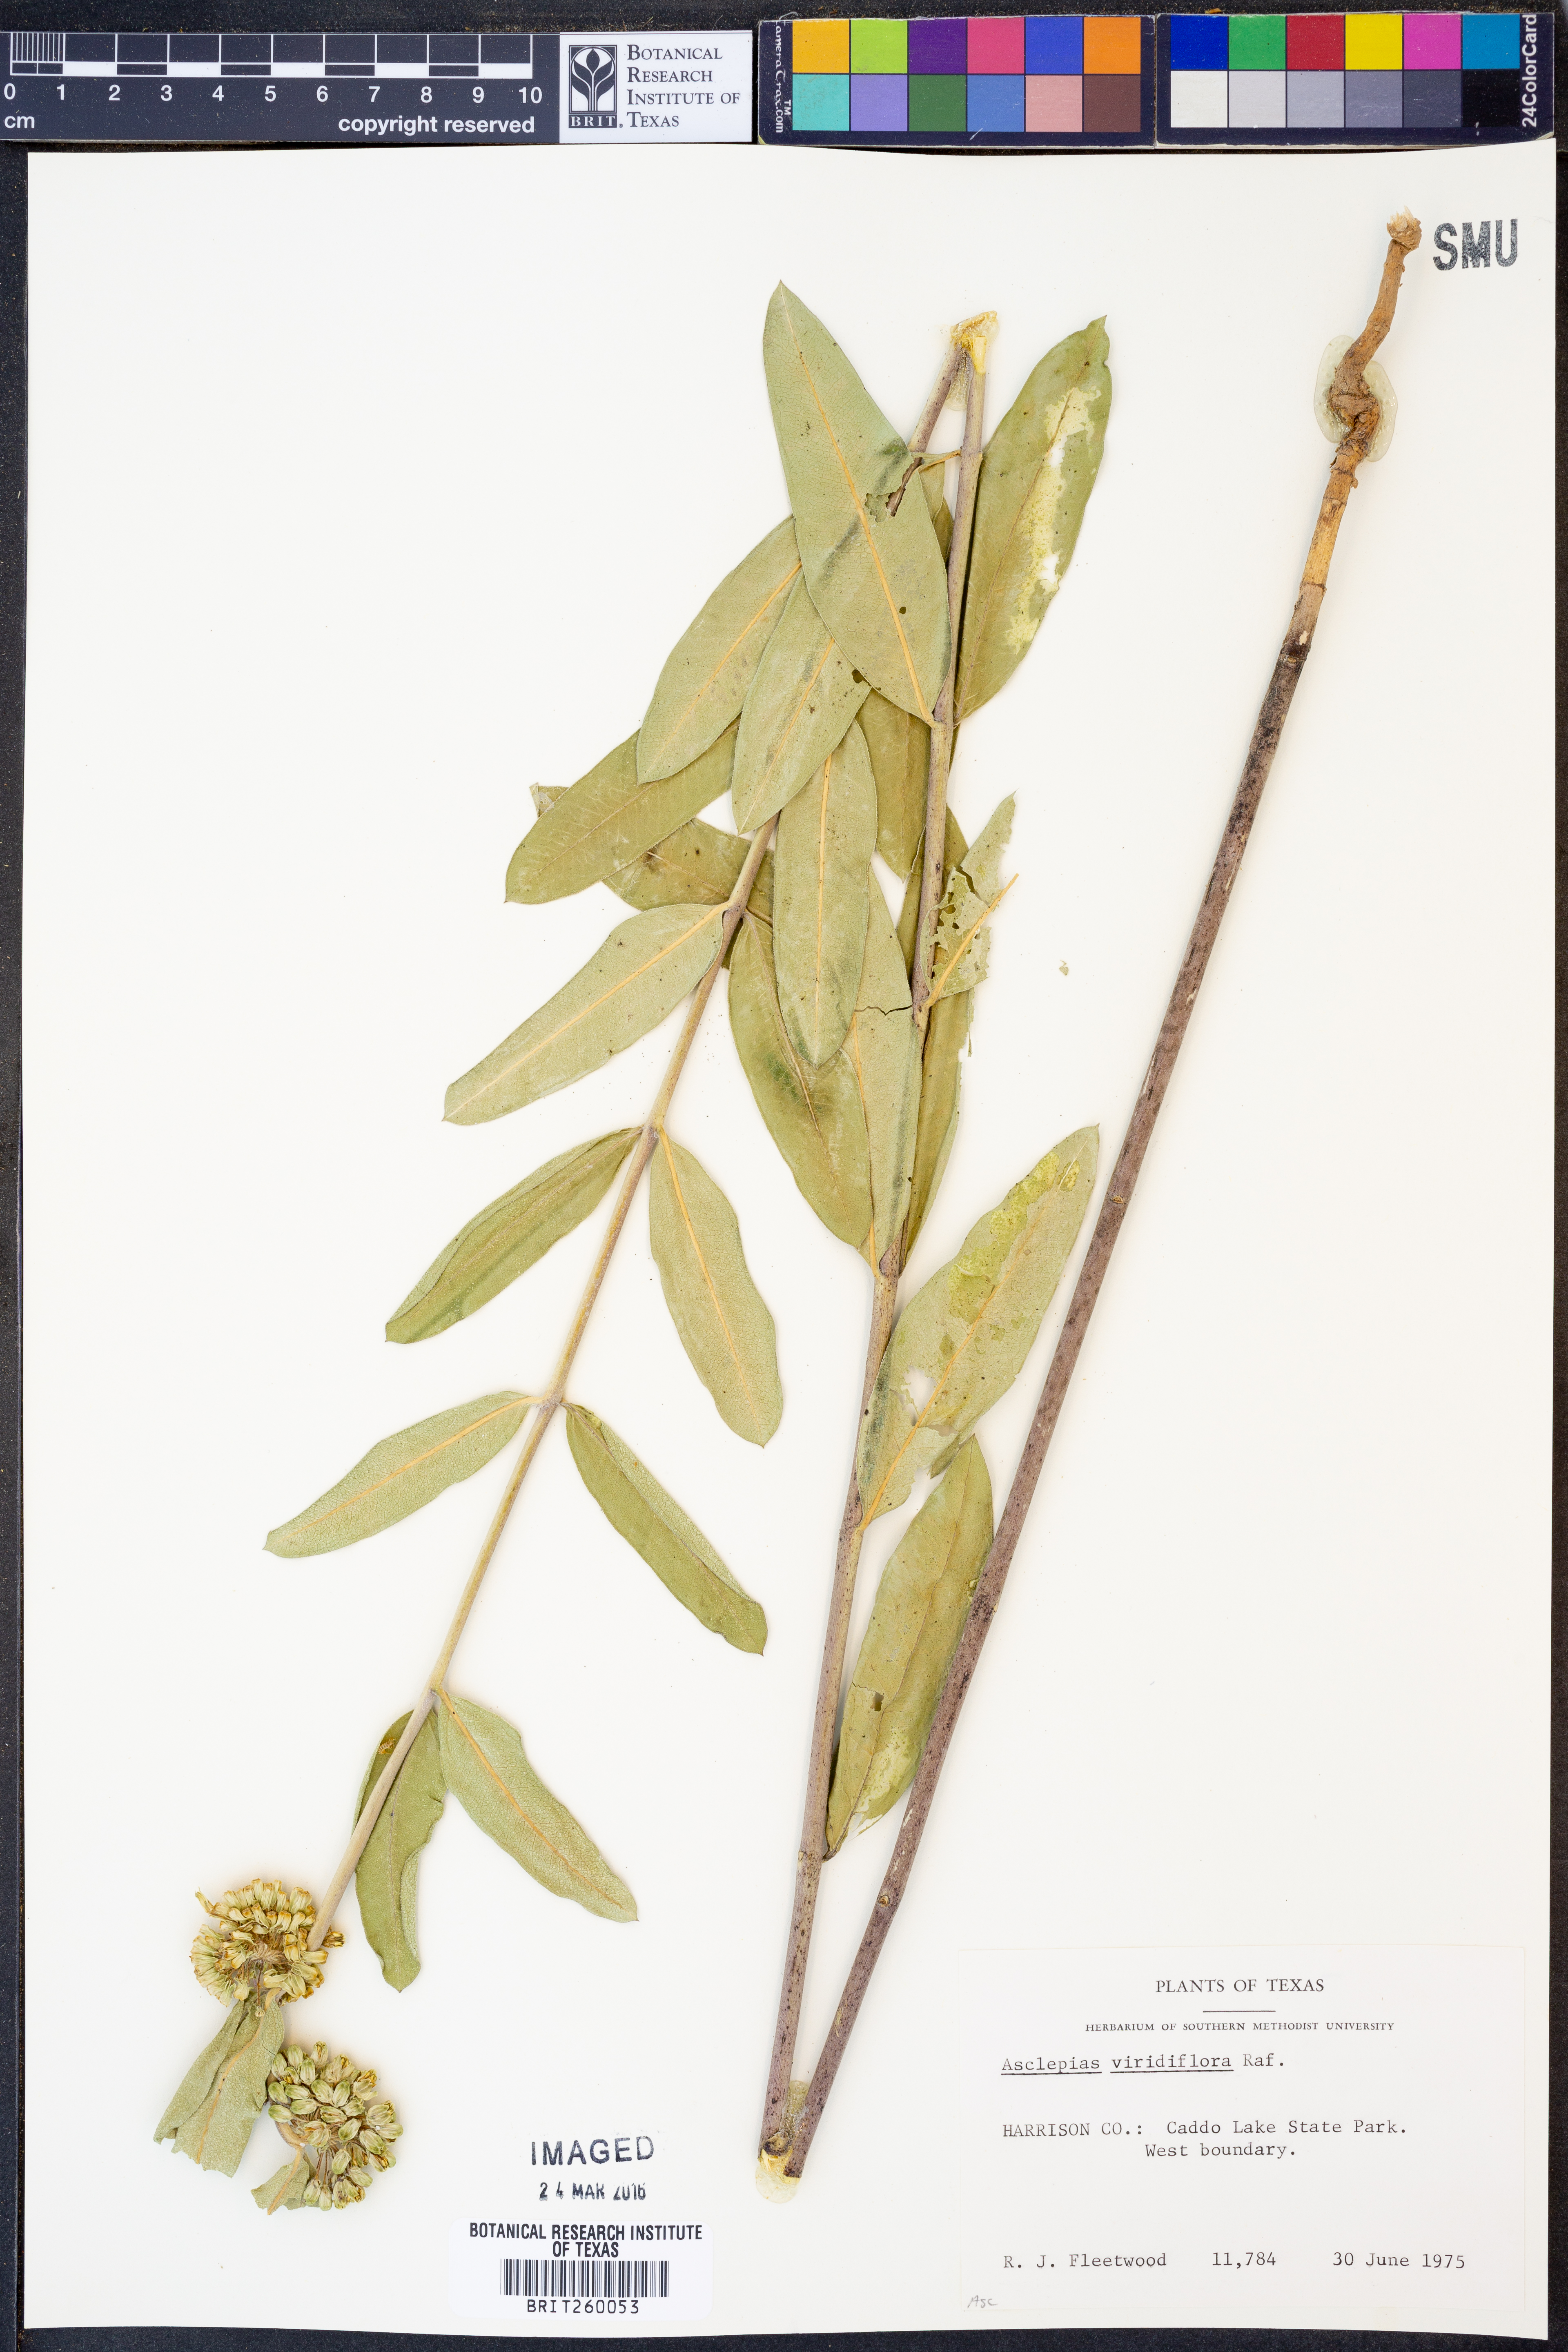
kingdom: Plantae
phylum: Tracheophyta
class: Magnoliopsida
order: Gentianales
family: Apocynaceae
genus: Asclepias
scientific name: Asclepias viridiflora
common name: Green comet milkweed
